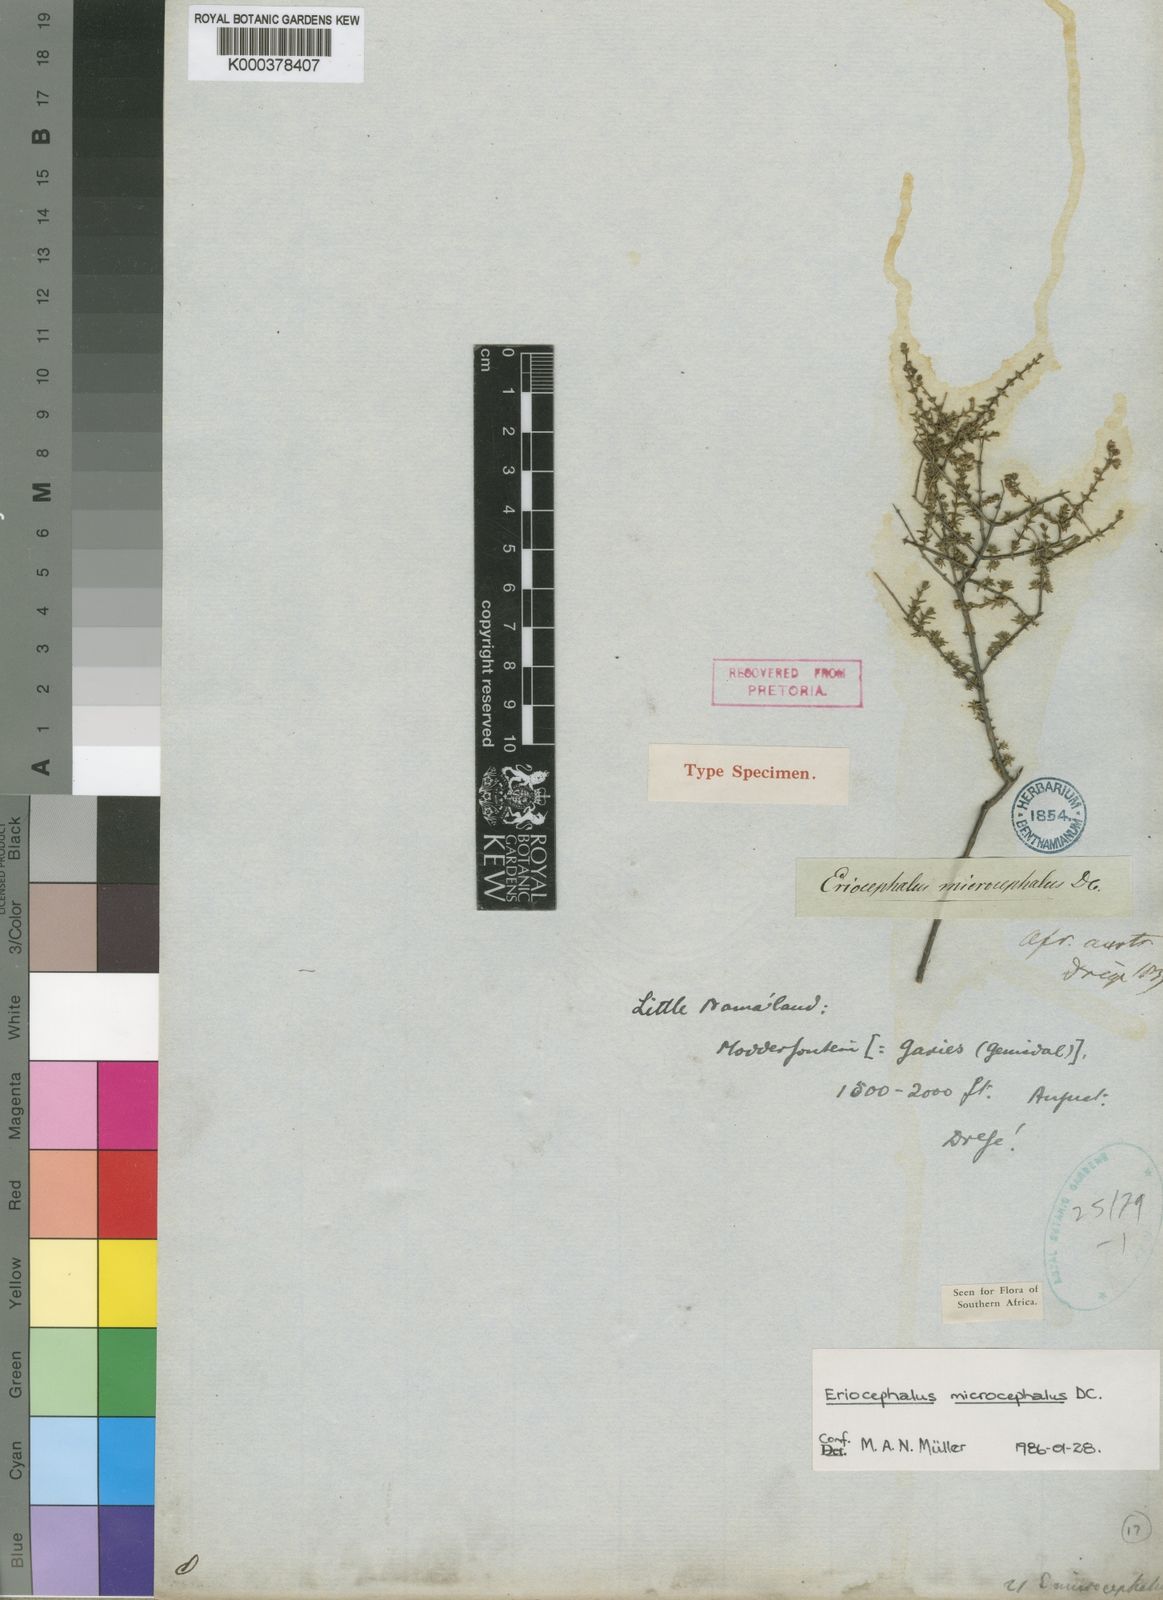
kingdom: Plantae
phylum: Tracheophyta
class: Magnoliopsida
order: Asterales
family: Asteraceae
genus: Eriocephalus
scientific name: Eriocephalus microcephalus
